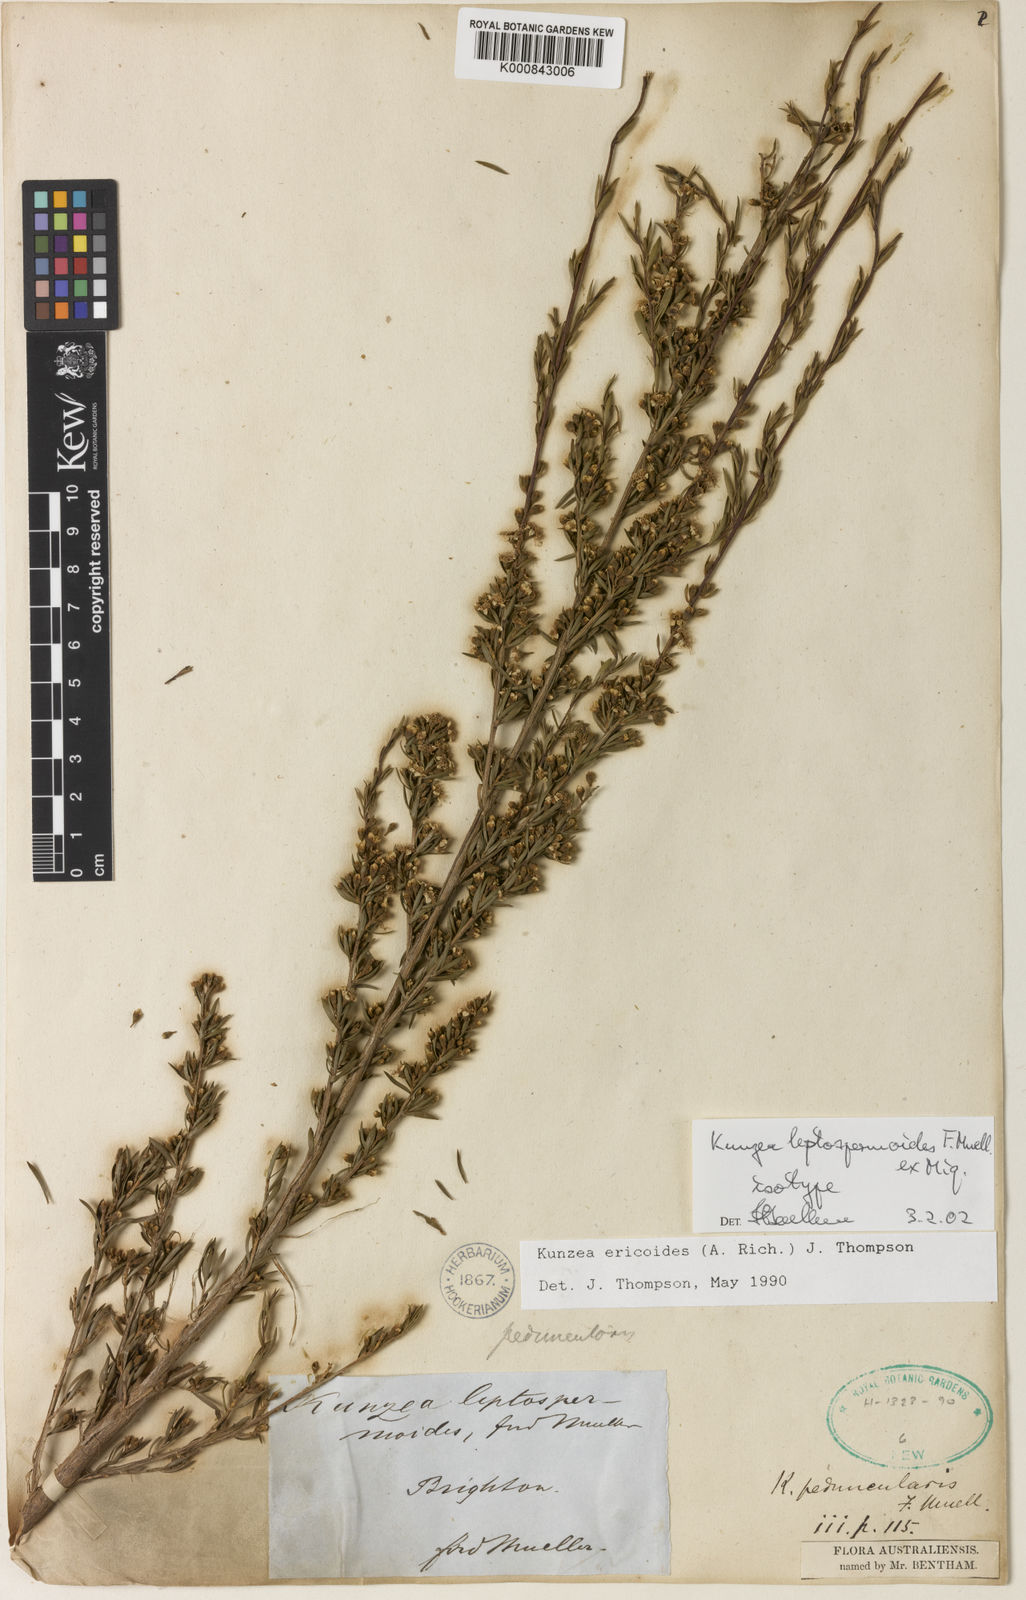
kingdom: Plantae
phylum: Tracheophyta
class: Magnoliopsida
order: Myrtales
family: Myrtaceae
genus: Kunzea
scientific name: Kunzea ericoides
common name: Burgan
